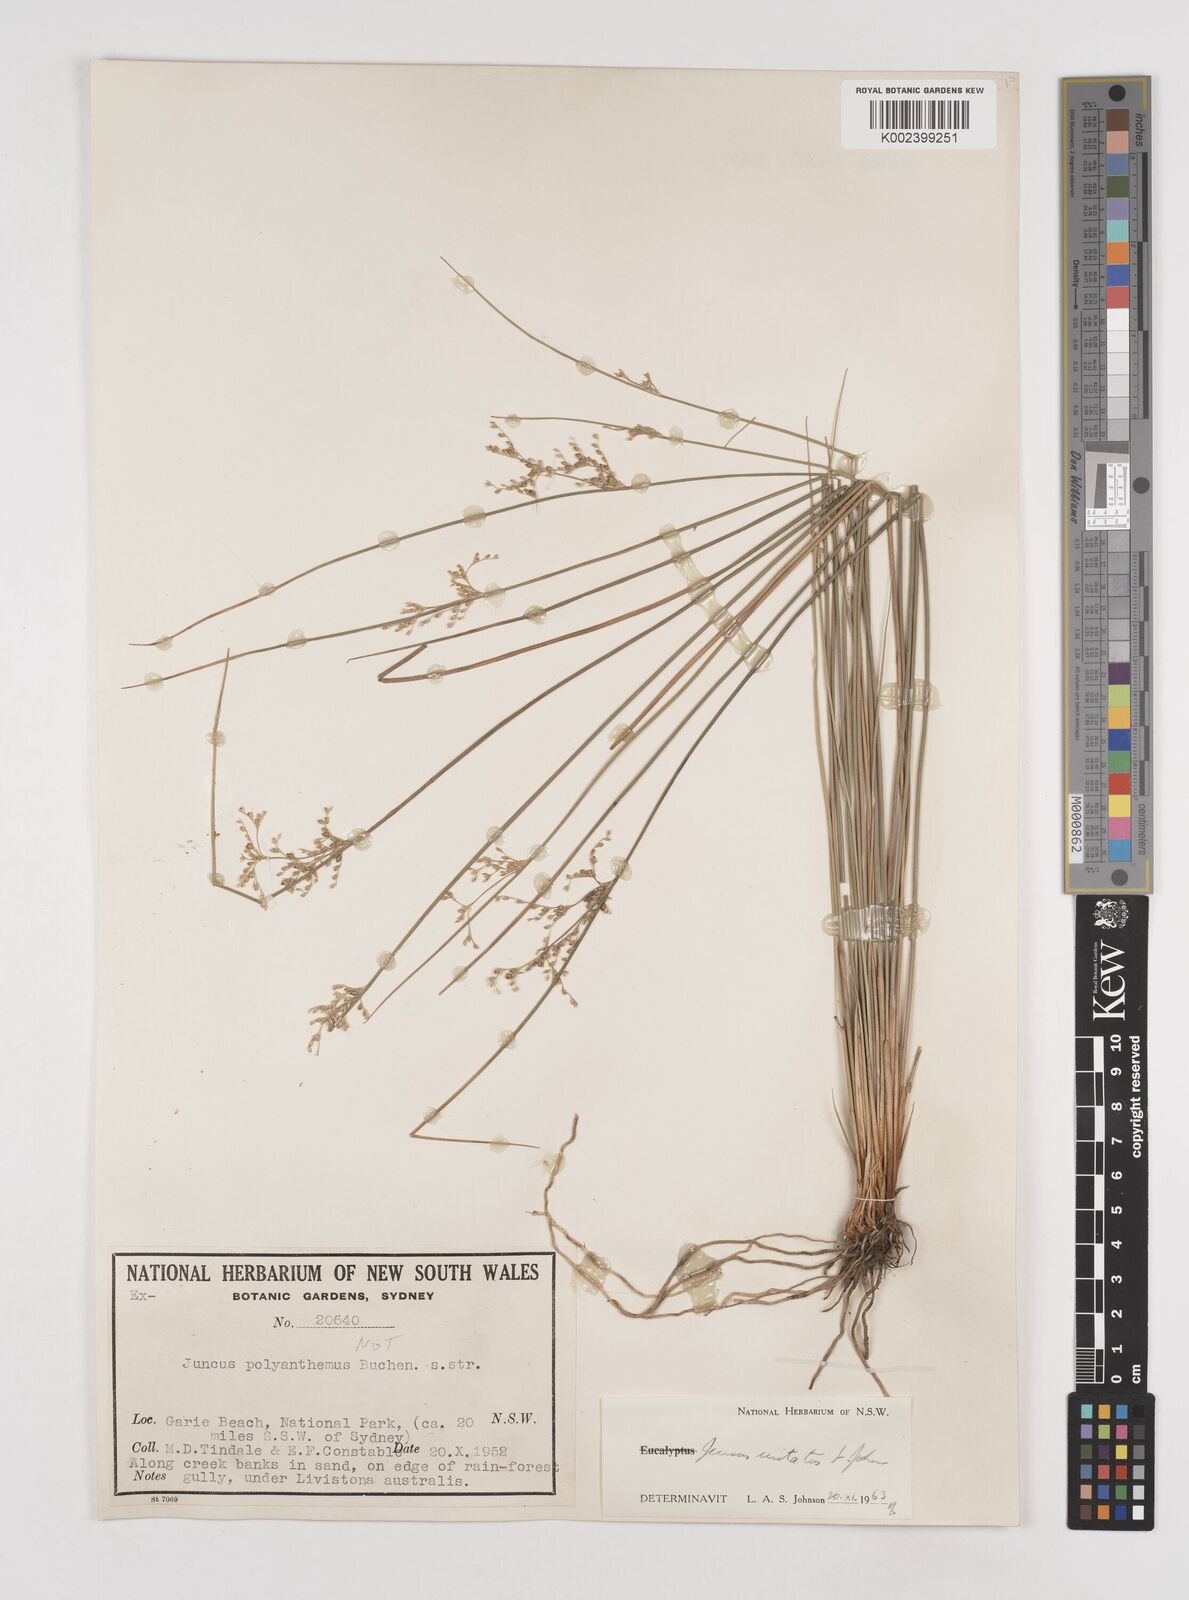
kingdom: Plantae
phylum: Tracheophyta
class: Liliopsida
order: Poales
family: Juncaceae
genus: Juncus
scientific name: Juncus usitatus
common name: Rush
